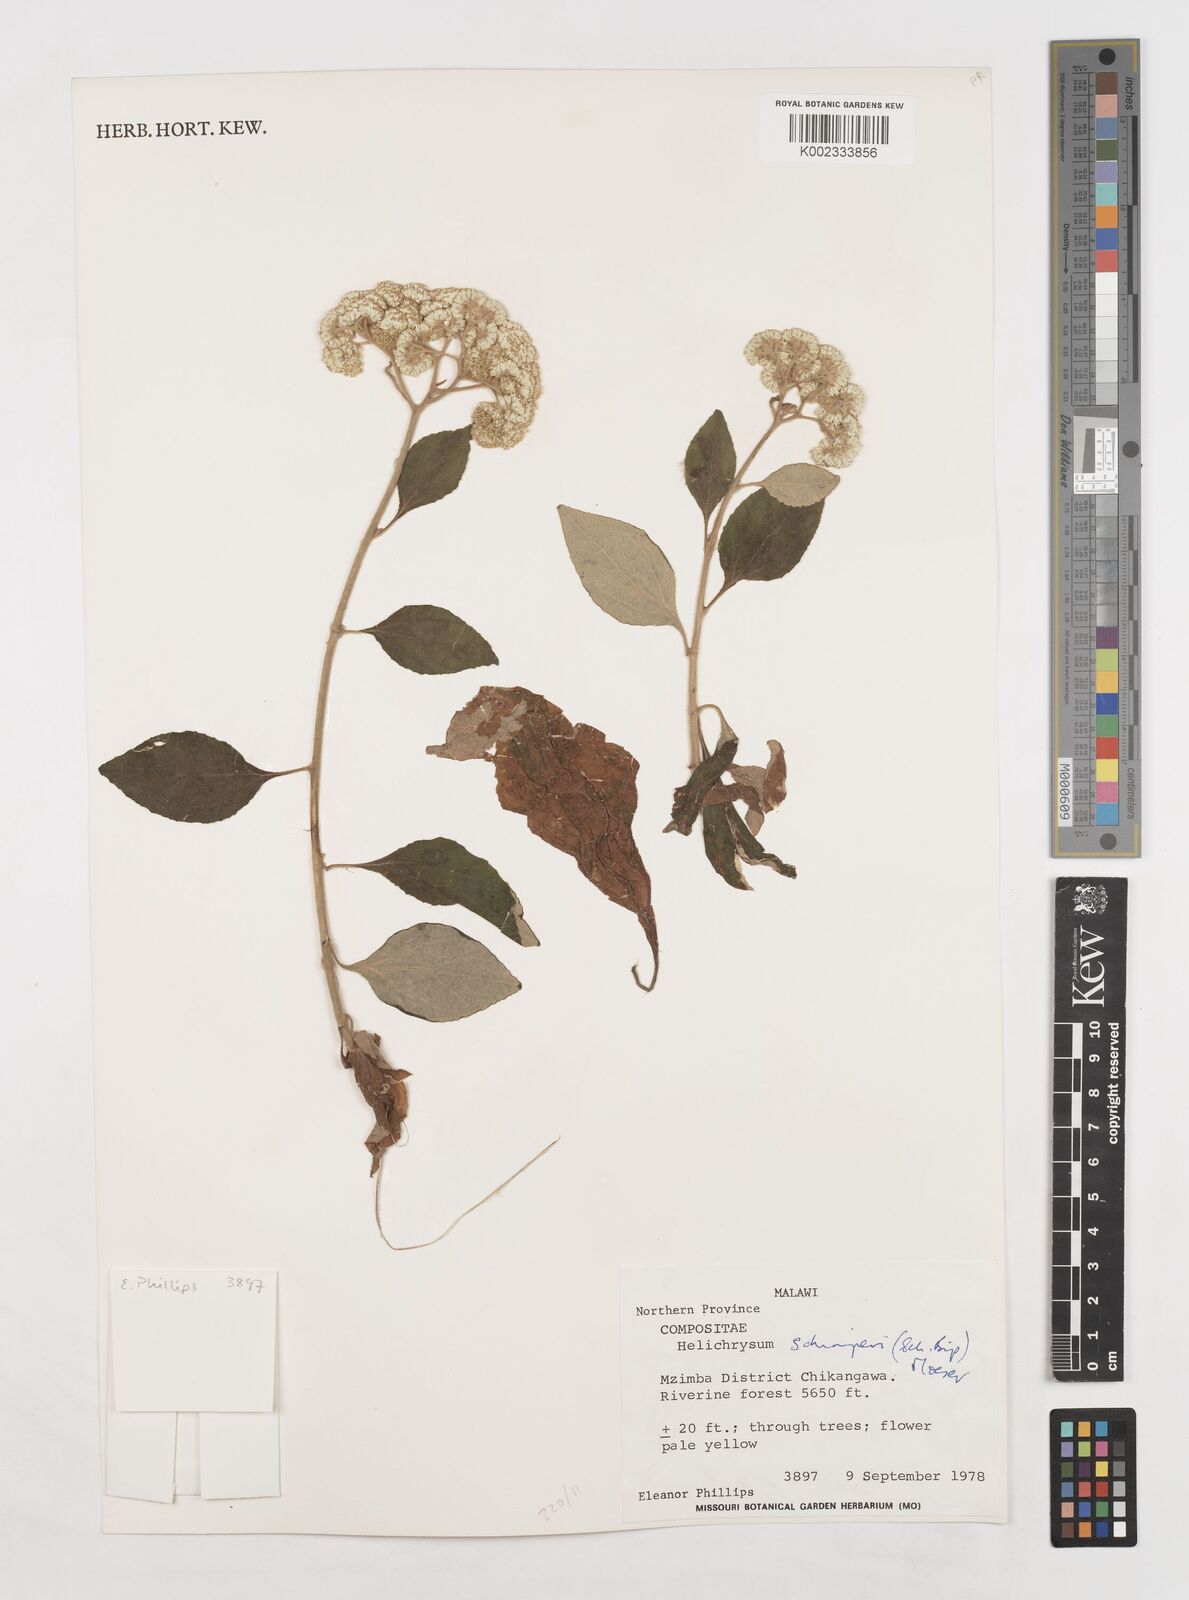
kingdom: Plantae
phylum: Tracheophyta
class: Magnoliopsida
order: Asterales
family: Asteraceae
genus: Helichrysum
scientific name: Helichrysum schimperi
